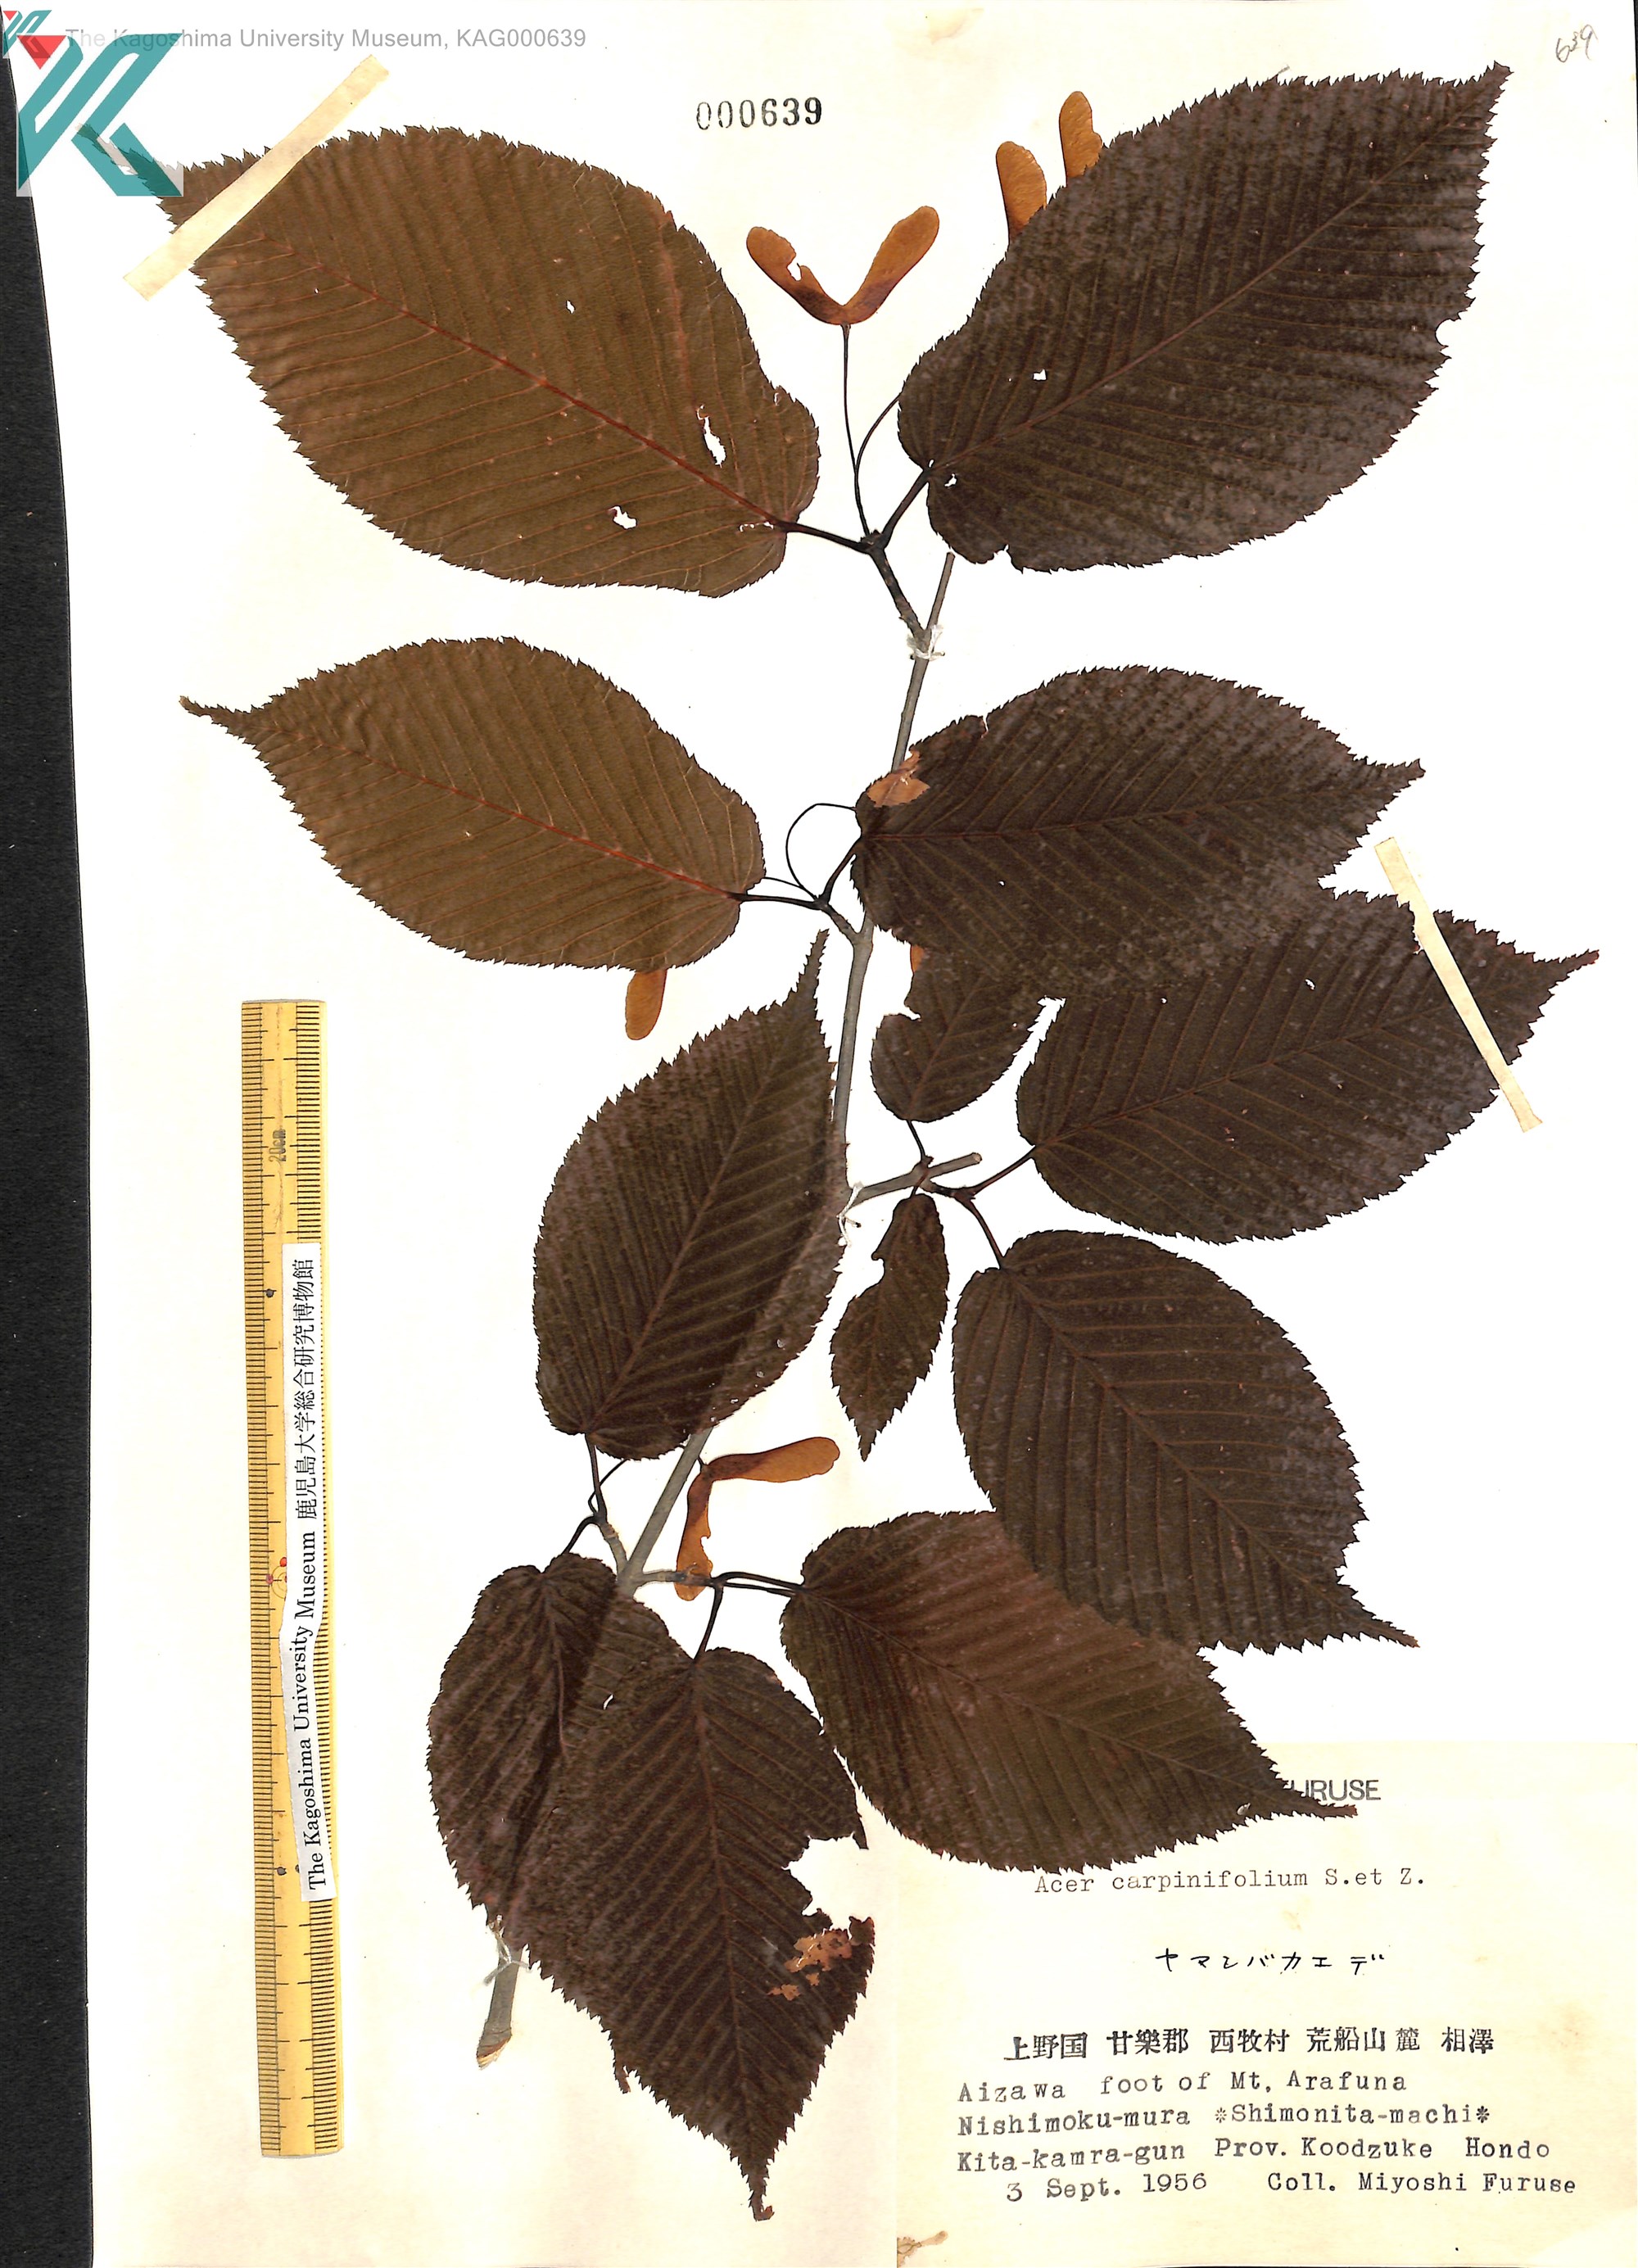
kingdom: Plantae
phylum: Tracheophyta
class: Magnoliopsida
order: Sapindales
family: Sapindaceae
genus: Acer
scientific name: Acer carpinifolium
